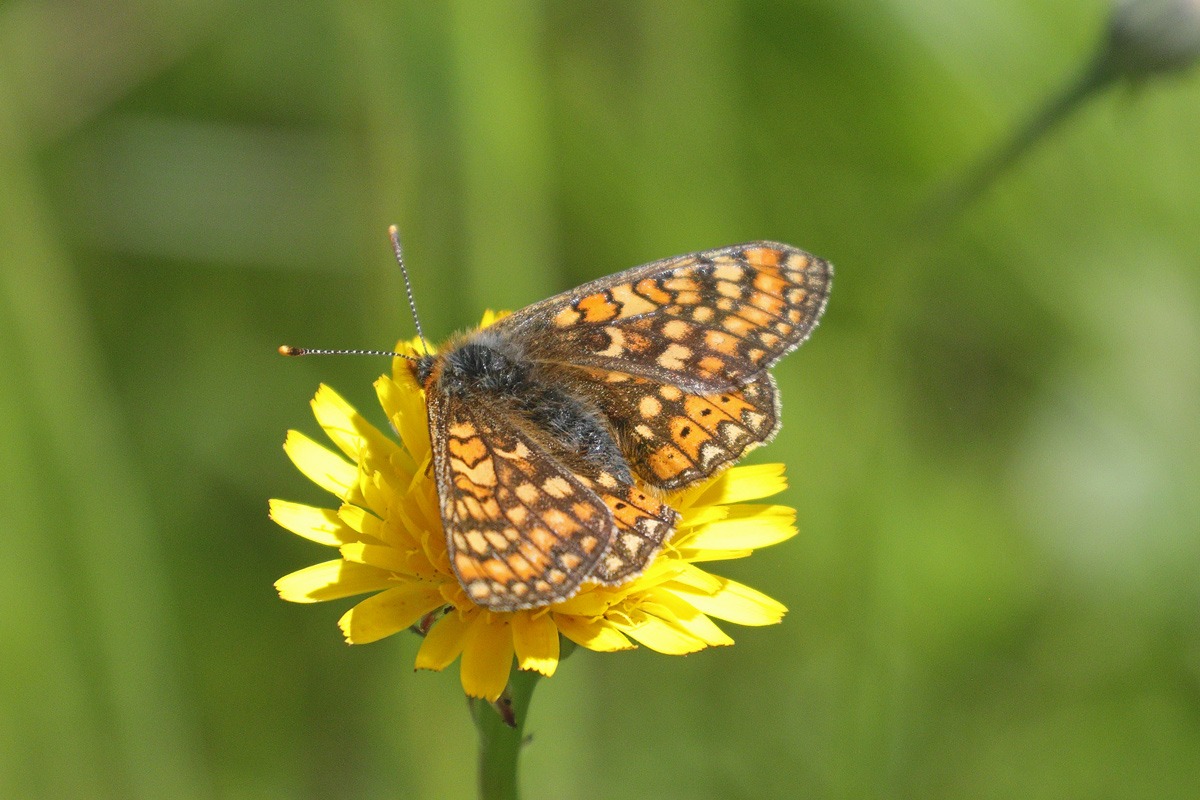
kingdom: Animalia
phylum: Arthropoda
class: Insecta
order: Lepidoptera
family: Nymphalidae
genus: Euphydryas
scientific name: Euphydryas aurinia
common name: Hedepletvinge
